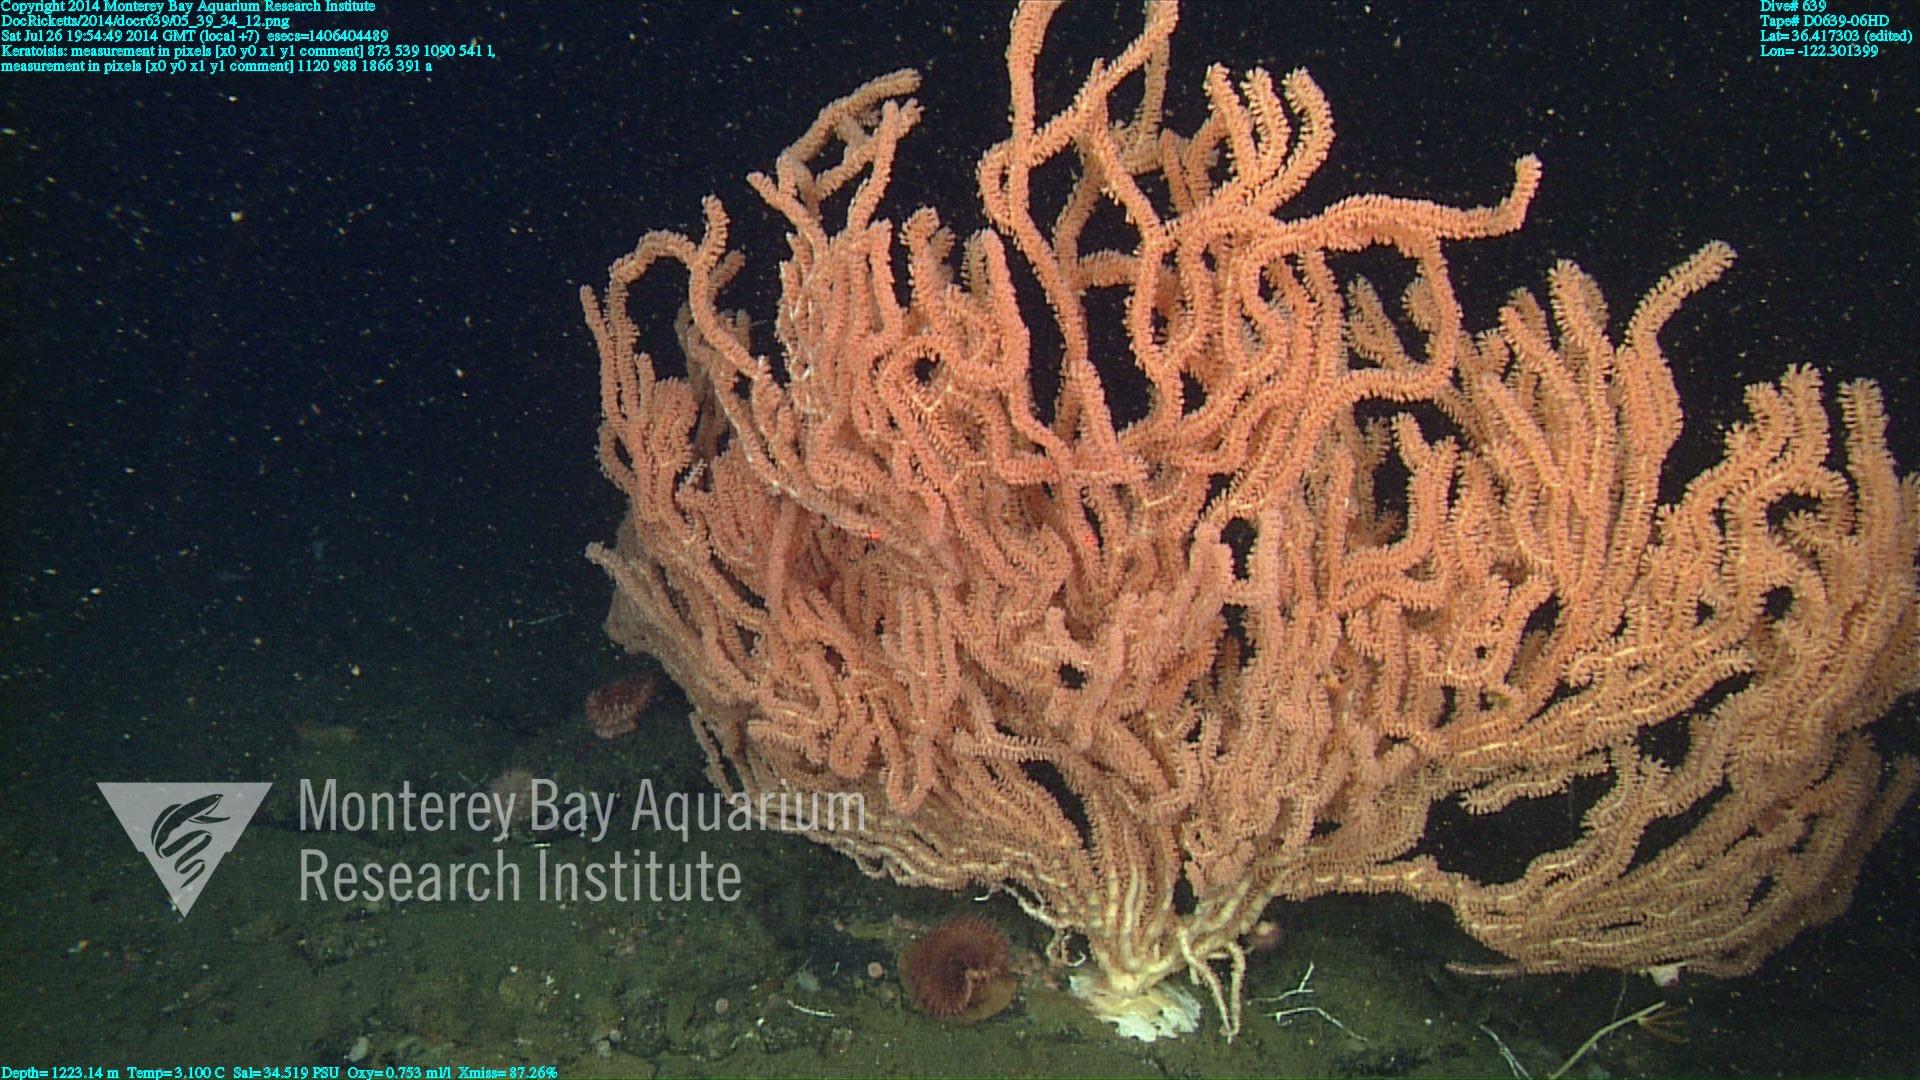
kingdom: Animalia
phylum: Cnidaria
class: Anthozoa
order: Scleralcyonacea
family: Keratoisididae
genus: Keratoisis
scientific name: Keratoisis
